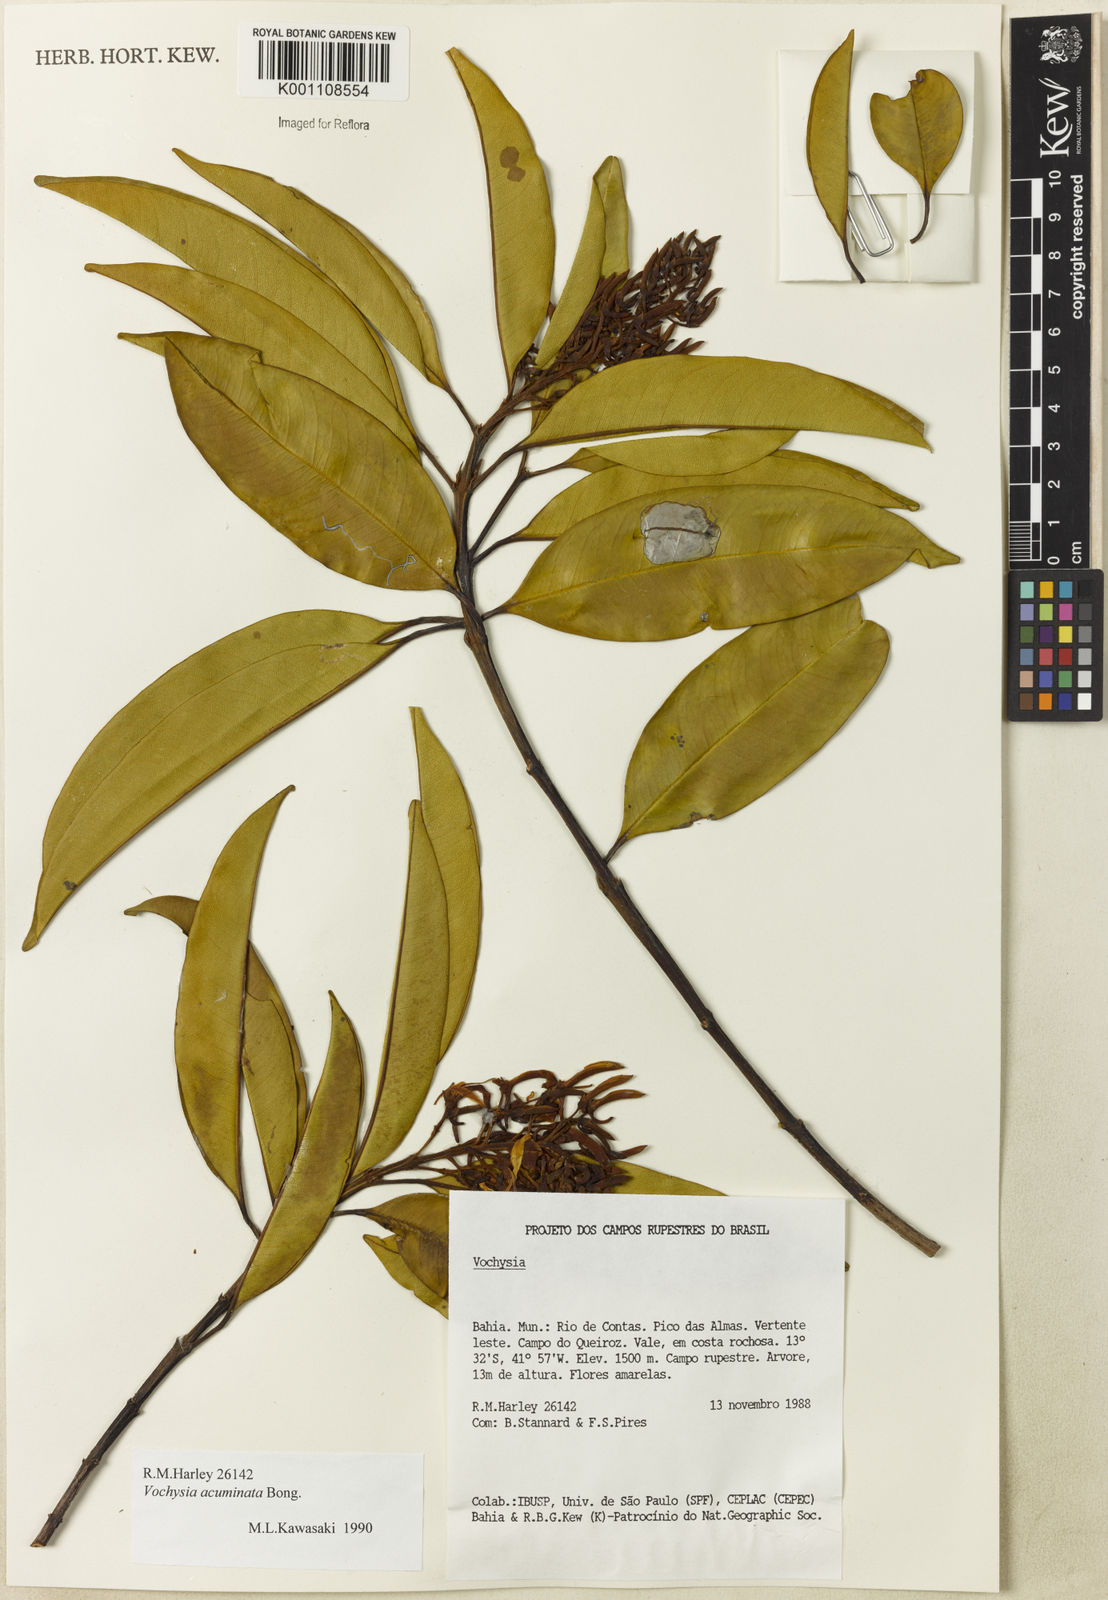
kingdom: Plantae
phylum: Tracheophyta
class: Magnoliopsida
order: Myrtales
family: Vochysiaceae
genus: Vochysia
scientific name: Vochysia acuminata
